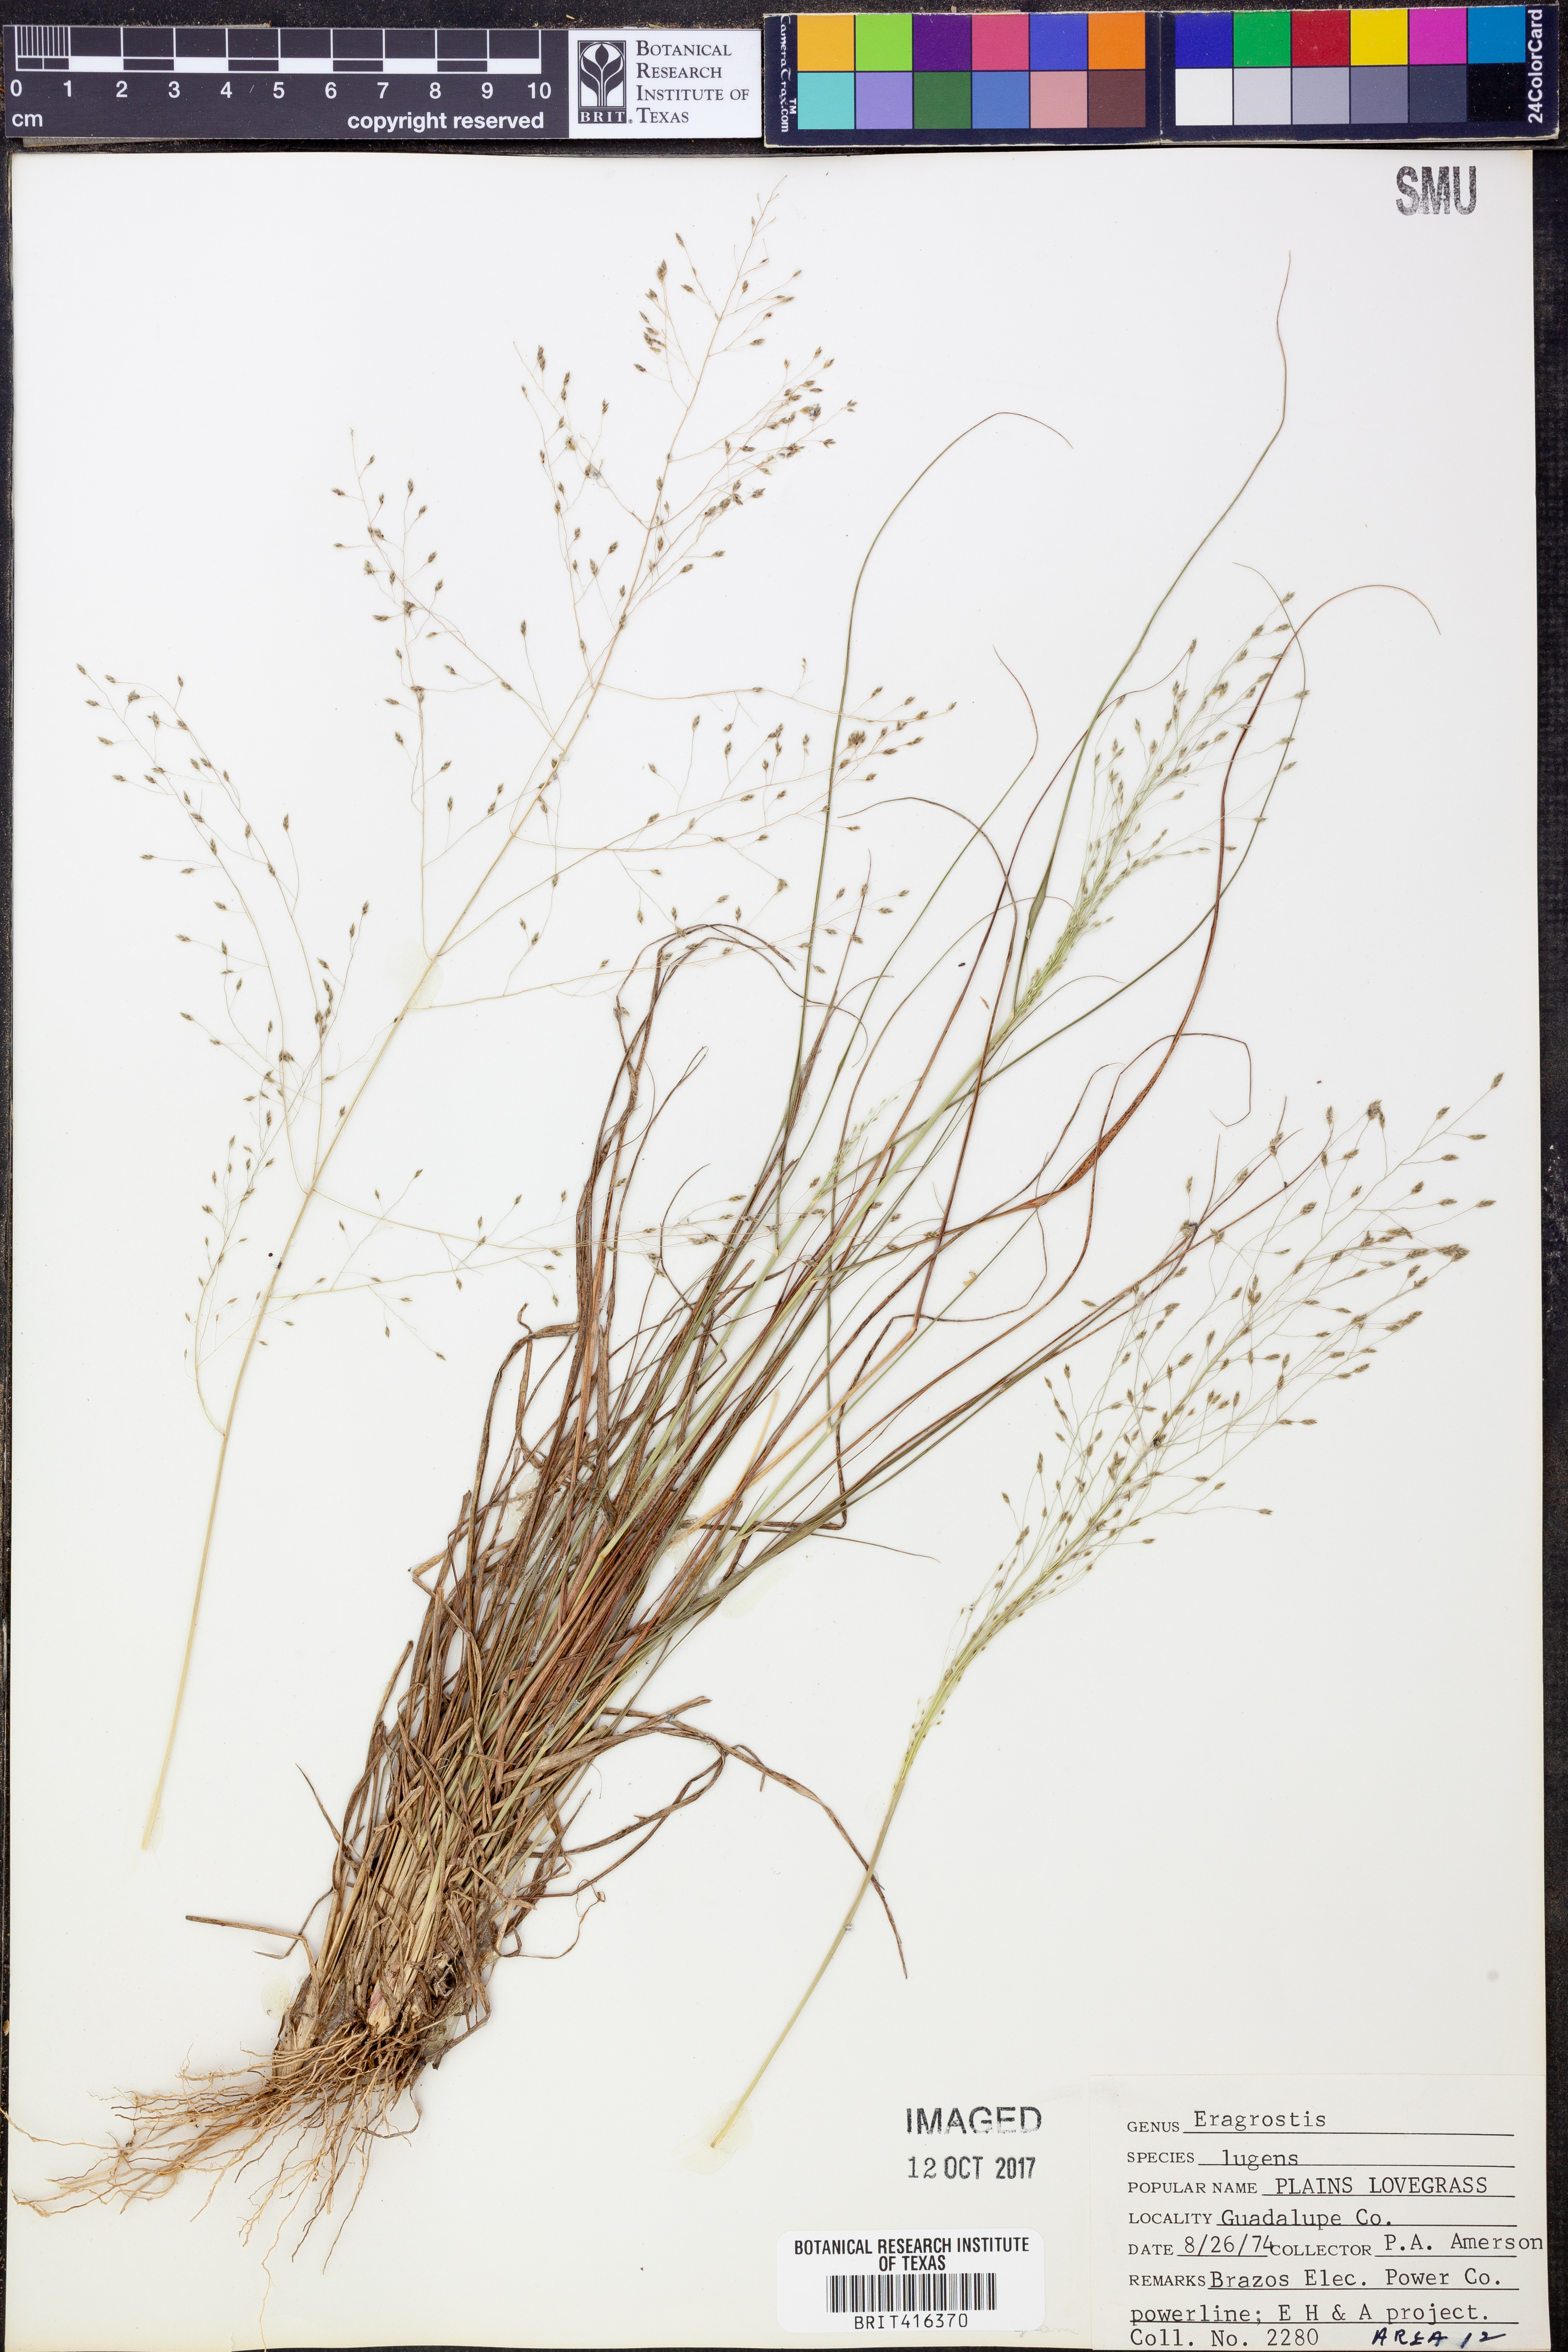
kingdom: Plantae
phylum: Tracheophyta
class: Liliopsida
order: Poales
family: Poaceae
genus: Eragrostis
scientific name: Eragrostis capillaris
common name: Hair-like lovegrass
